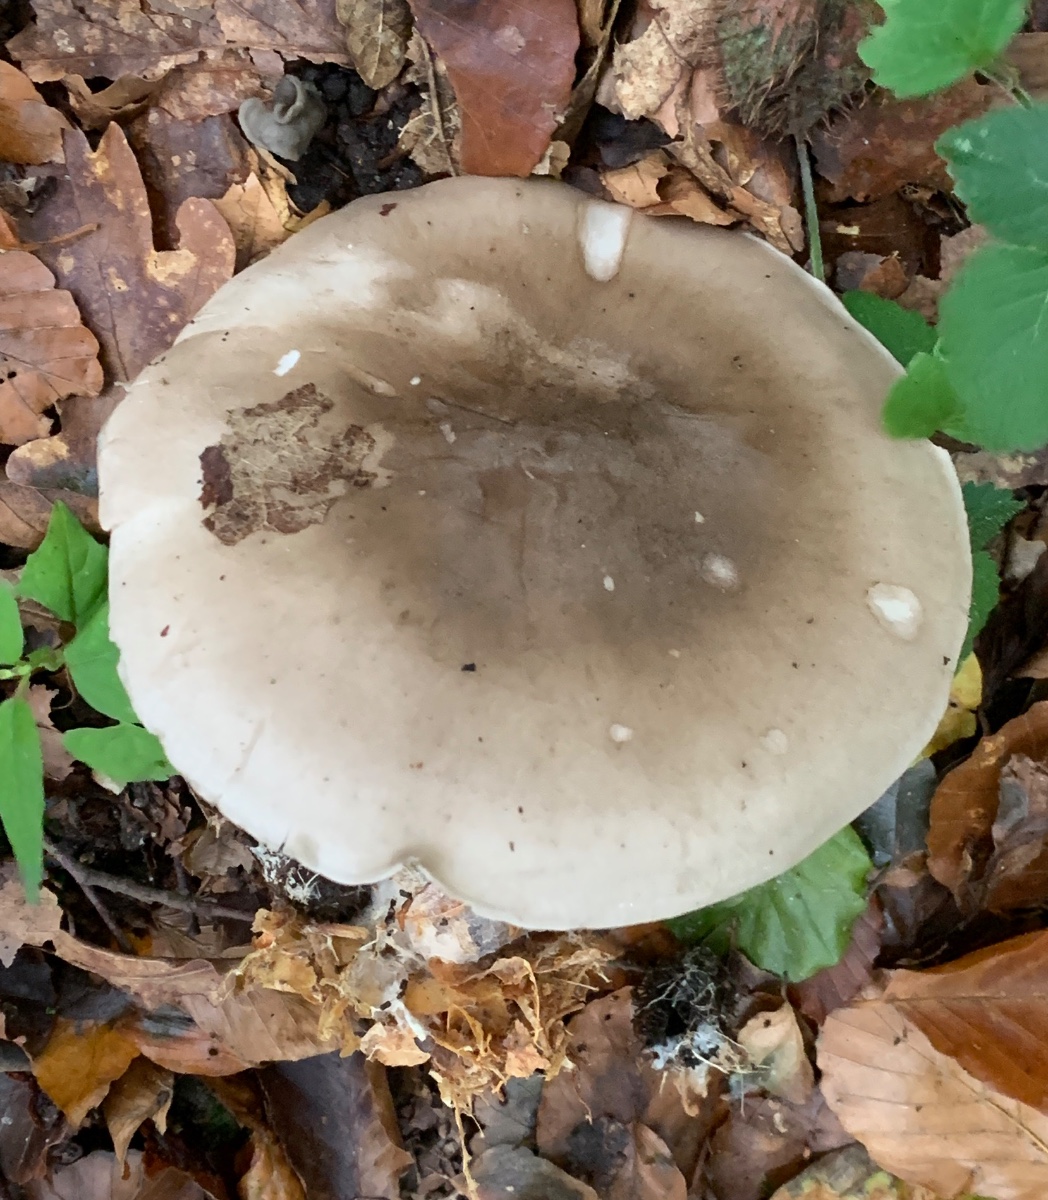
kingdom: Fungi
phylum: Basidiomycota
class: Agaricomycetes
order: Agaricales
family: Tricholomataceae
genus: Clitocybe
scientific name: Clitocybe nebularis
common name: tåge-tragthat
